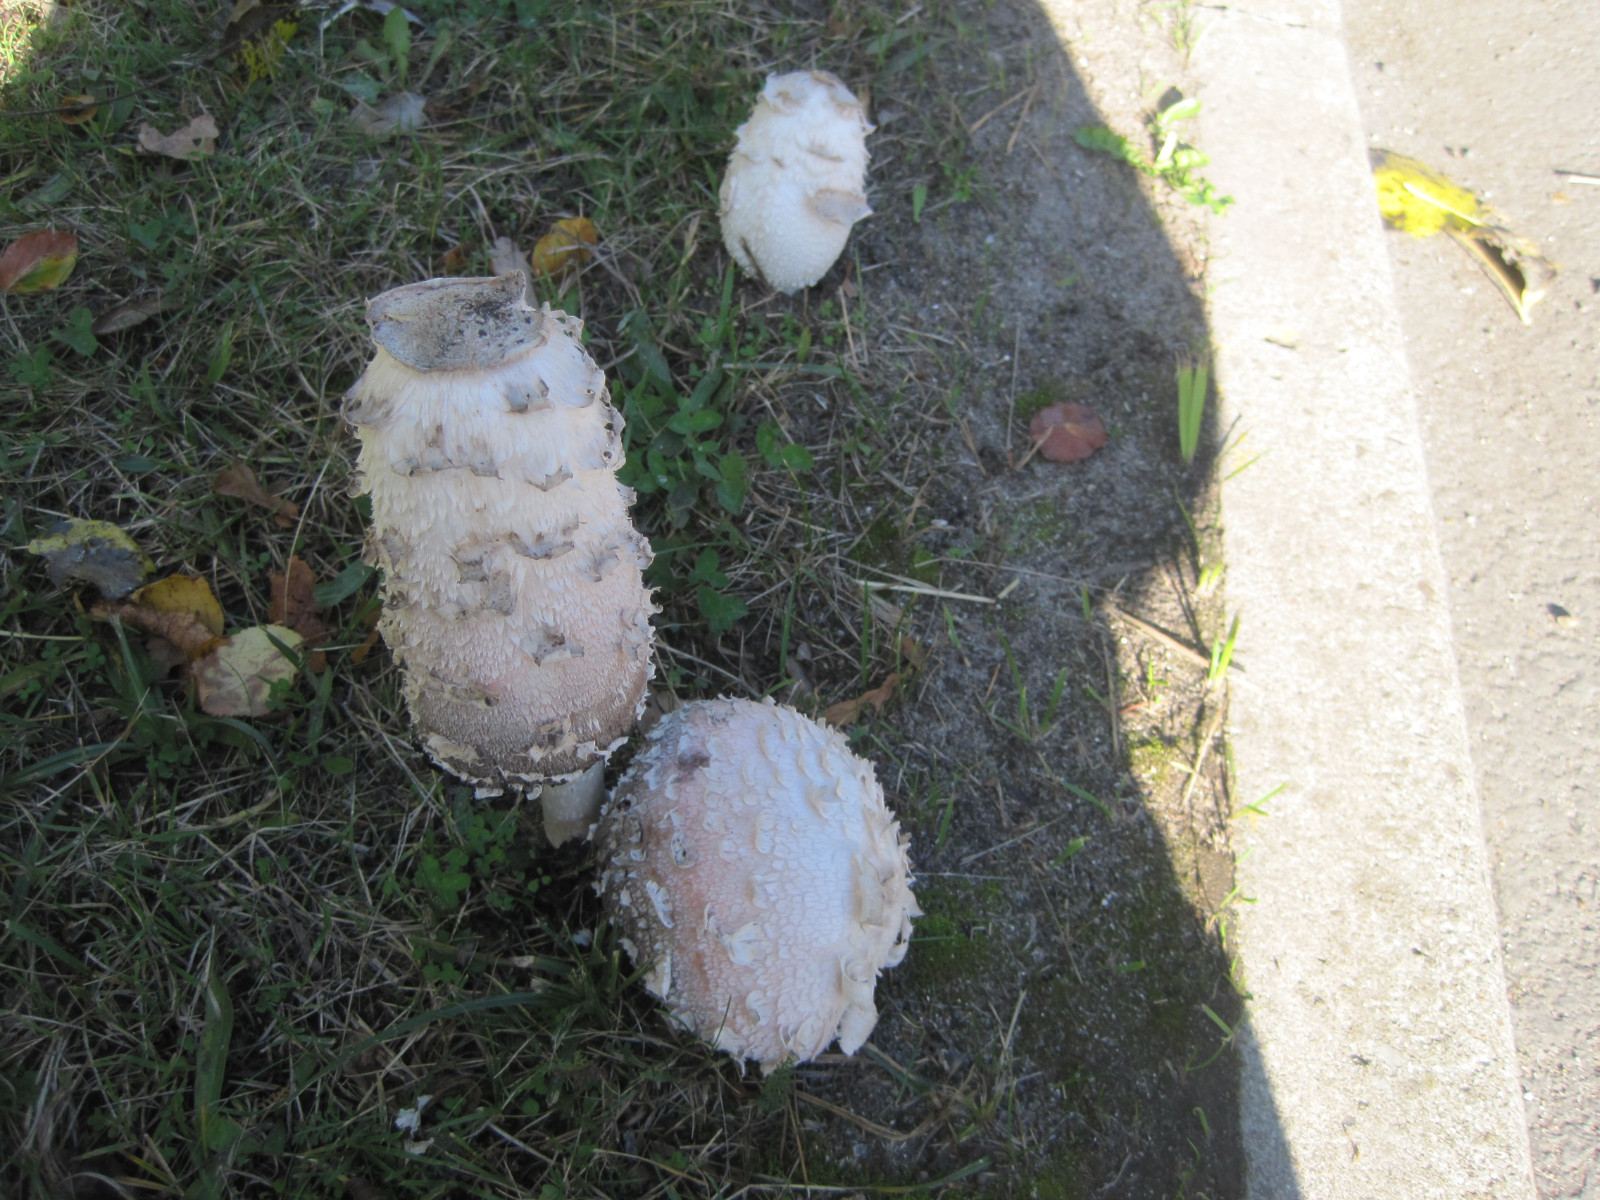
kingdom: Fungi
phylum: Basidiomycota
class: Agaricomycetes
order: Agaricales
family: Agaricaceae
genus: Coprinus
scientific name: Coprinus comatus
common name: stor parykhat
